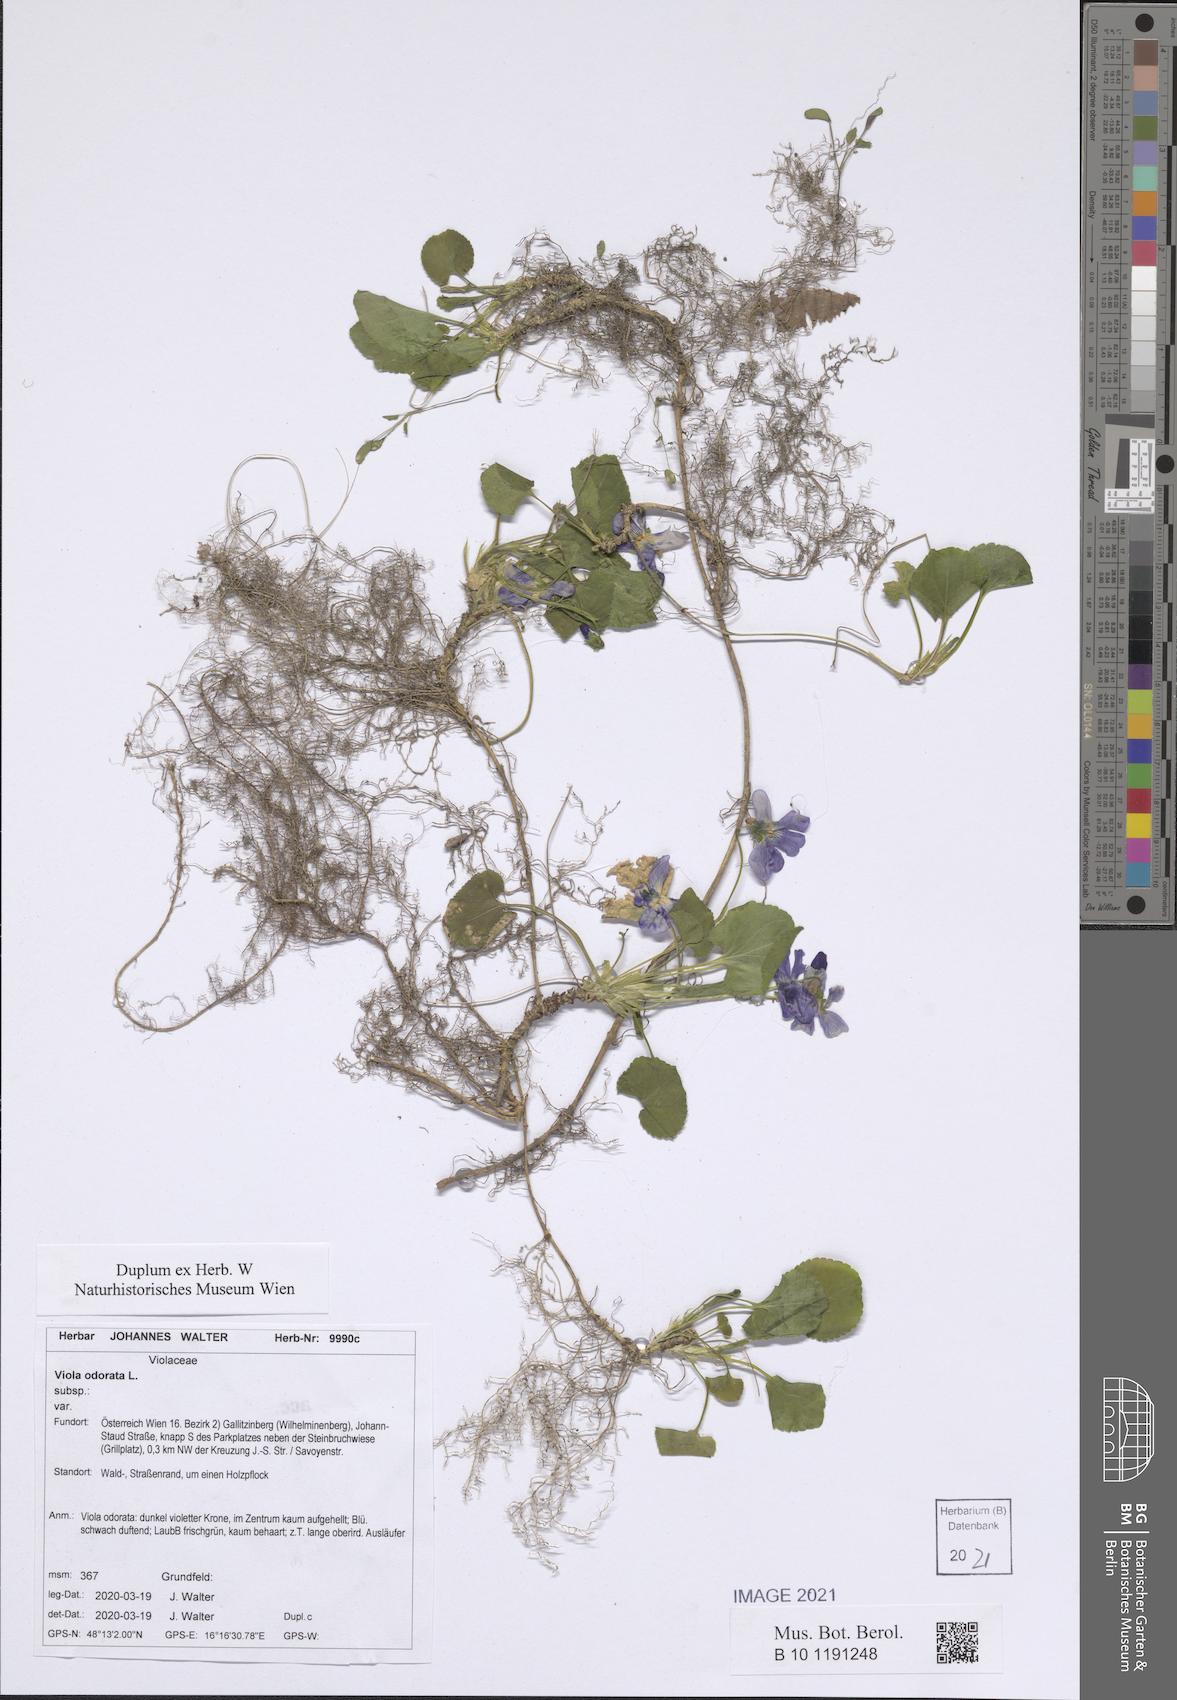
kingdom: Plantae
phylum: Tracheophyta
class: Magnoliopsida
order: Malpighiales
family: Violaceae
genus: Viola
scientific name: Viola odorata
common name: Sweet violet
